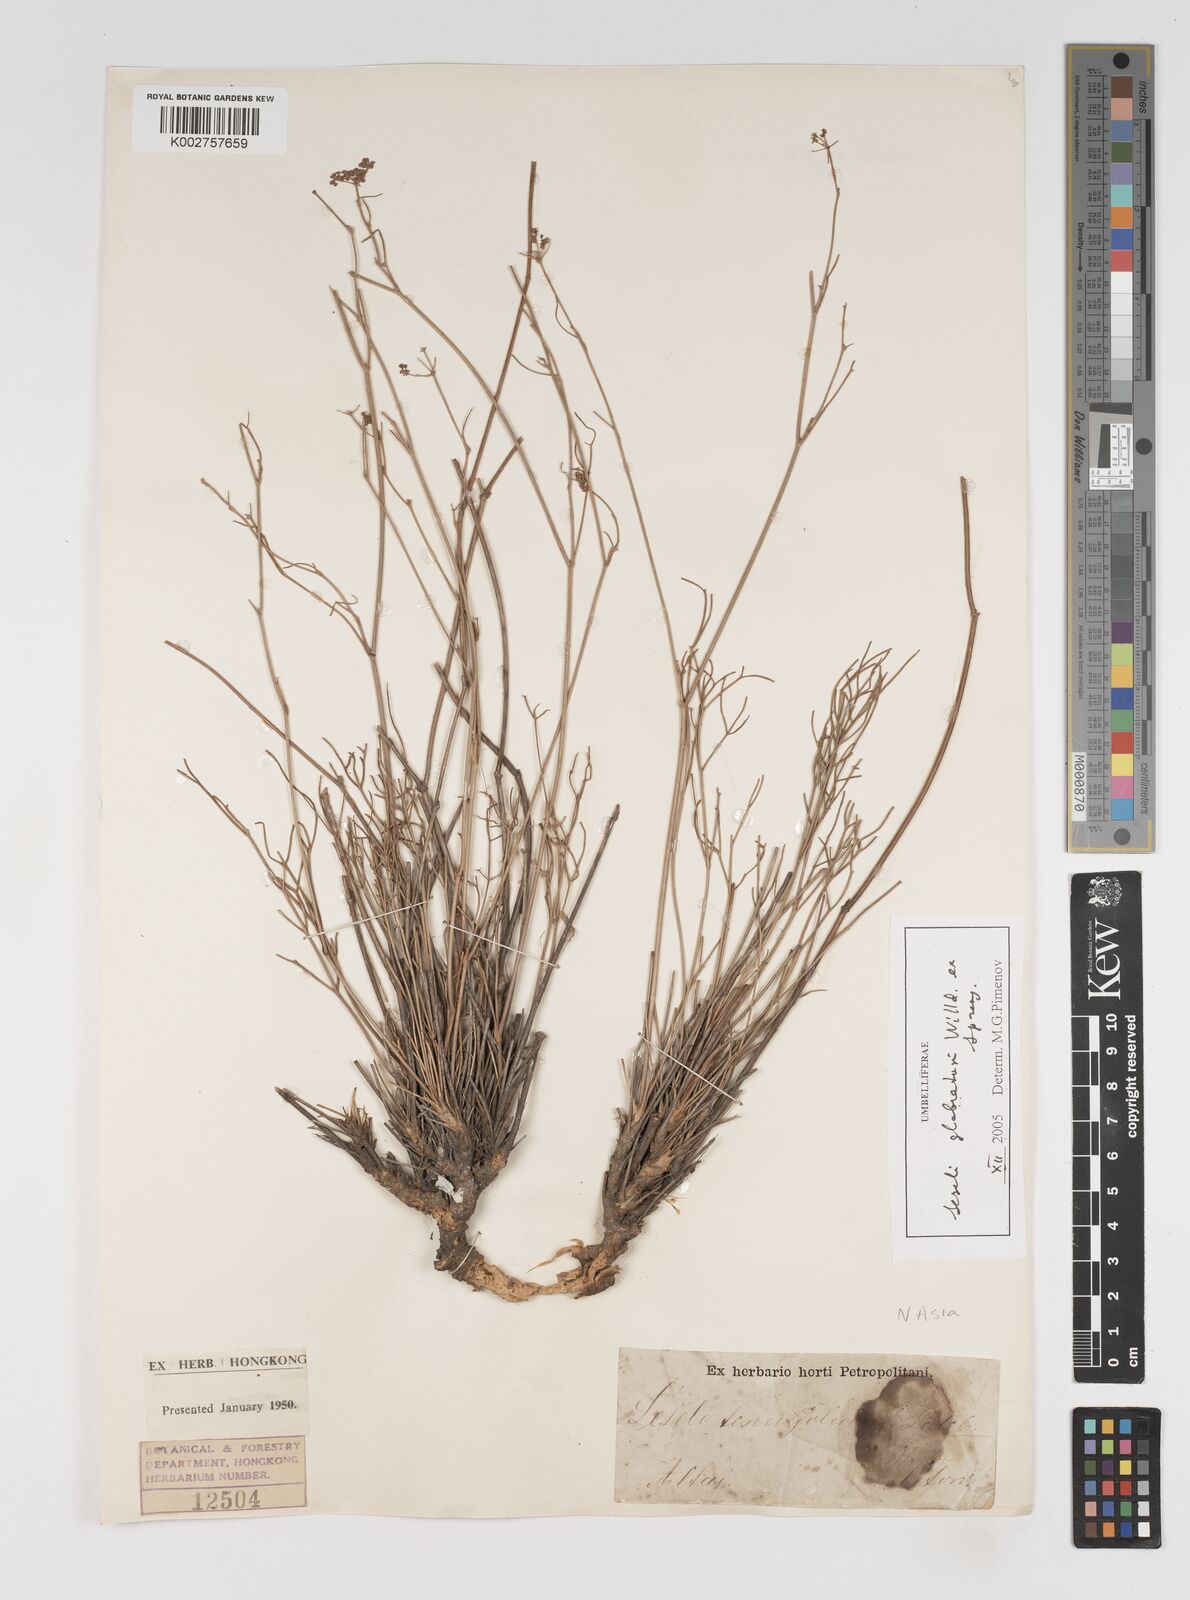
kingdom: Plantae
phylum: Tracheophyta
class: Magnoliopsida
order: Apiales
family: Apiaceae
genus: Seseli
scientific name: Seseli glabratum
